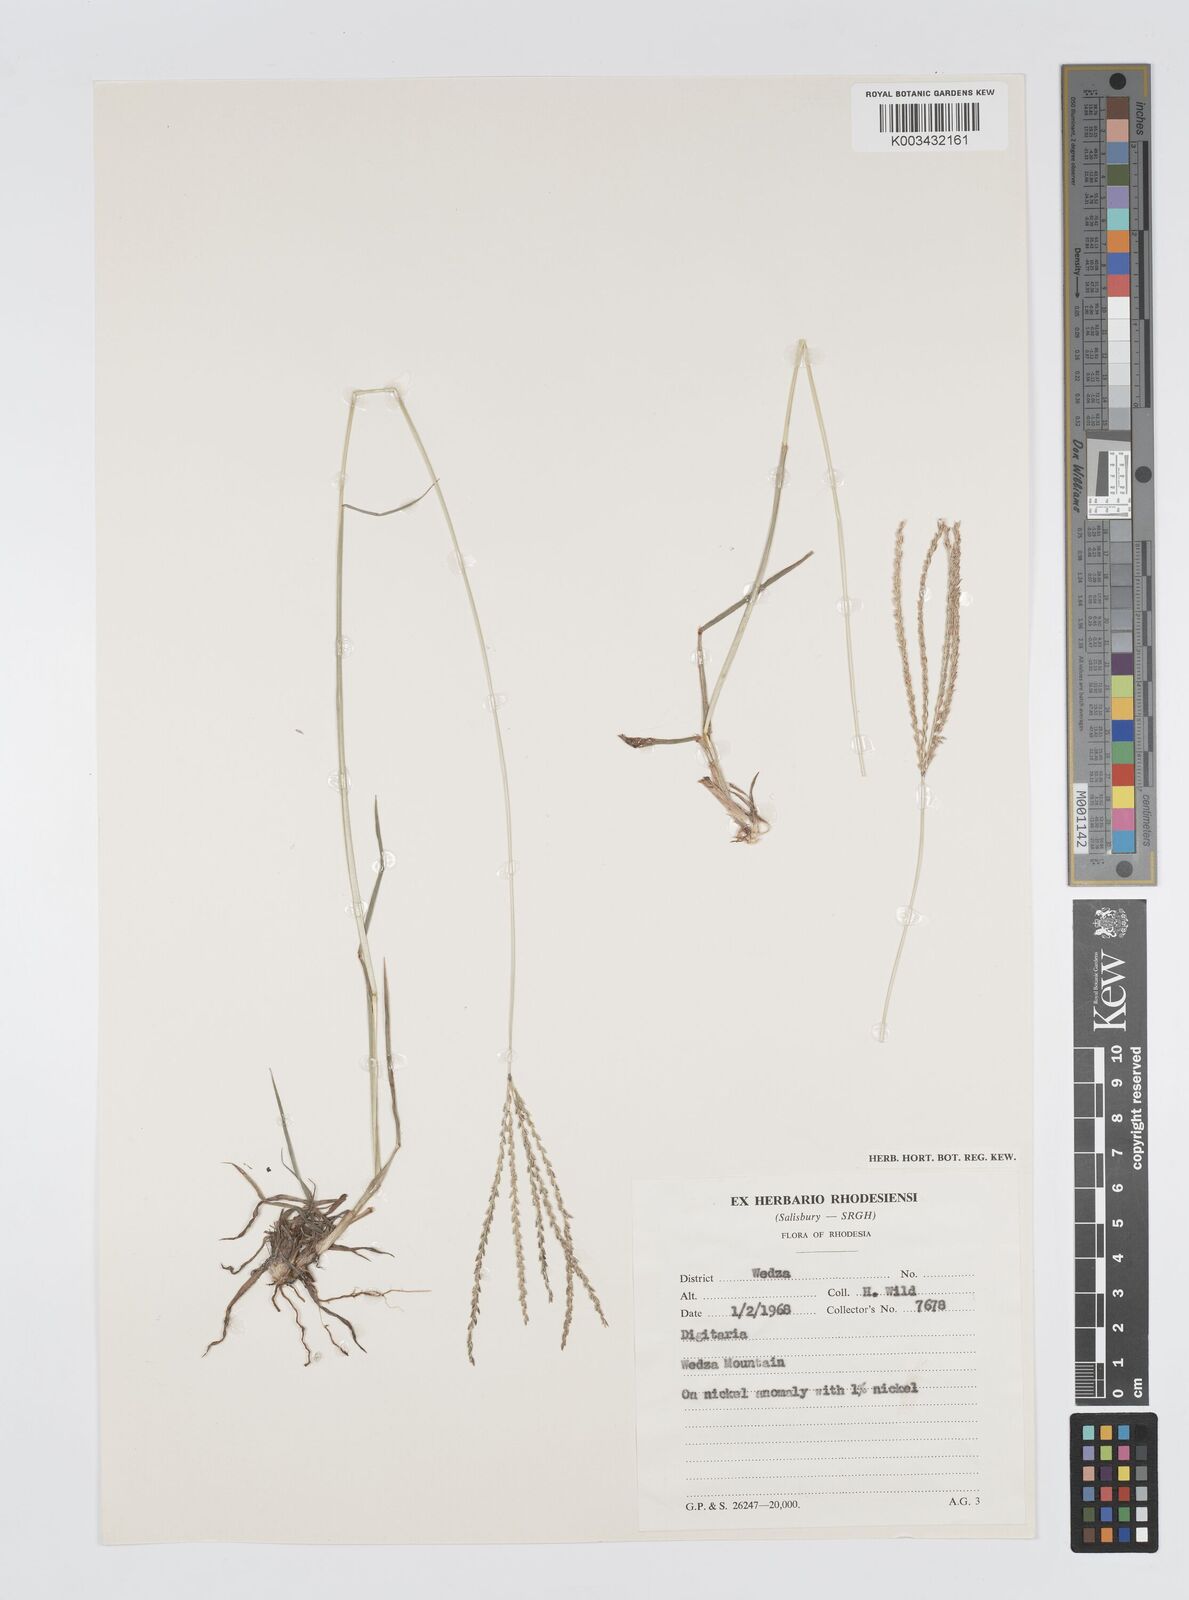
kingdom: Plantae
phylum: Tracheophyta
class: Liliopsida
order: Poales
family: Poaceae
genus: Digitaria
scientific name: Digitaria milanjiana
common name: Madagascar crabgrass
